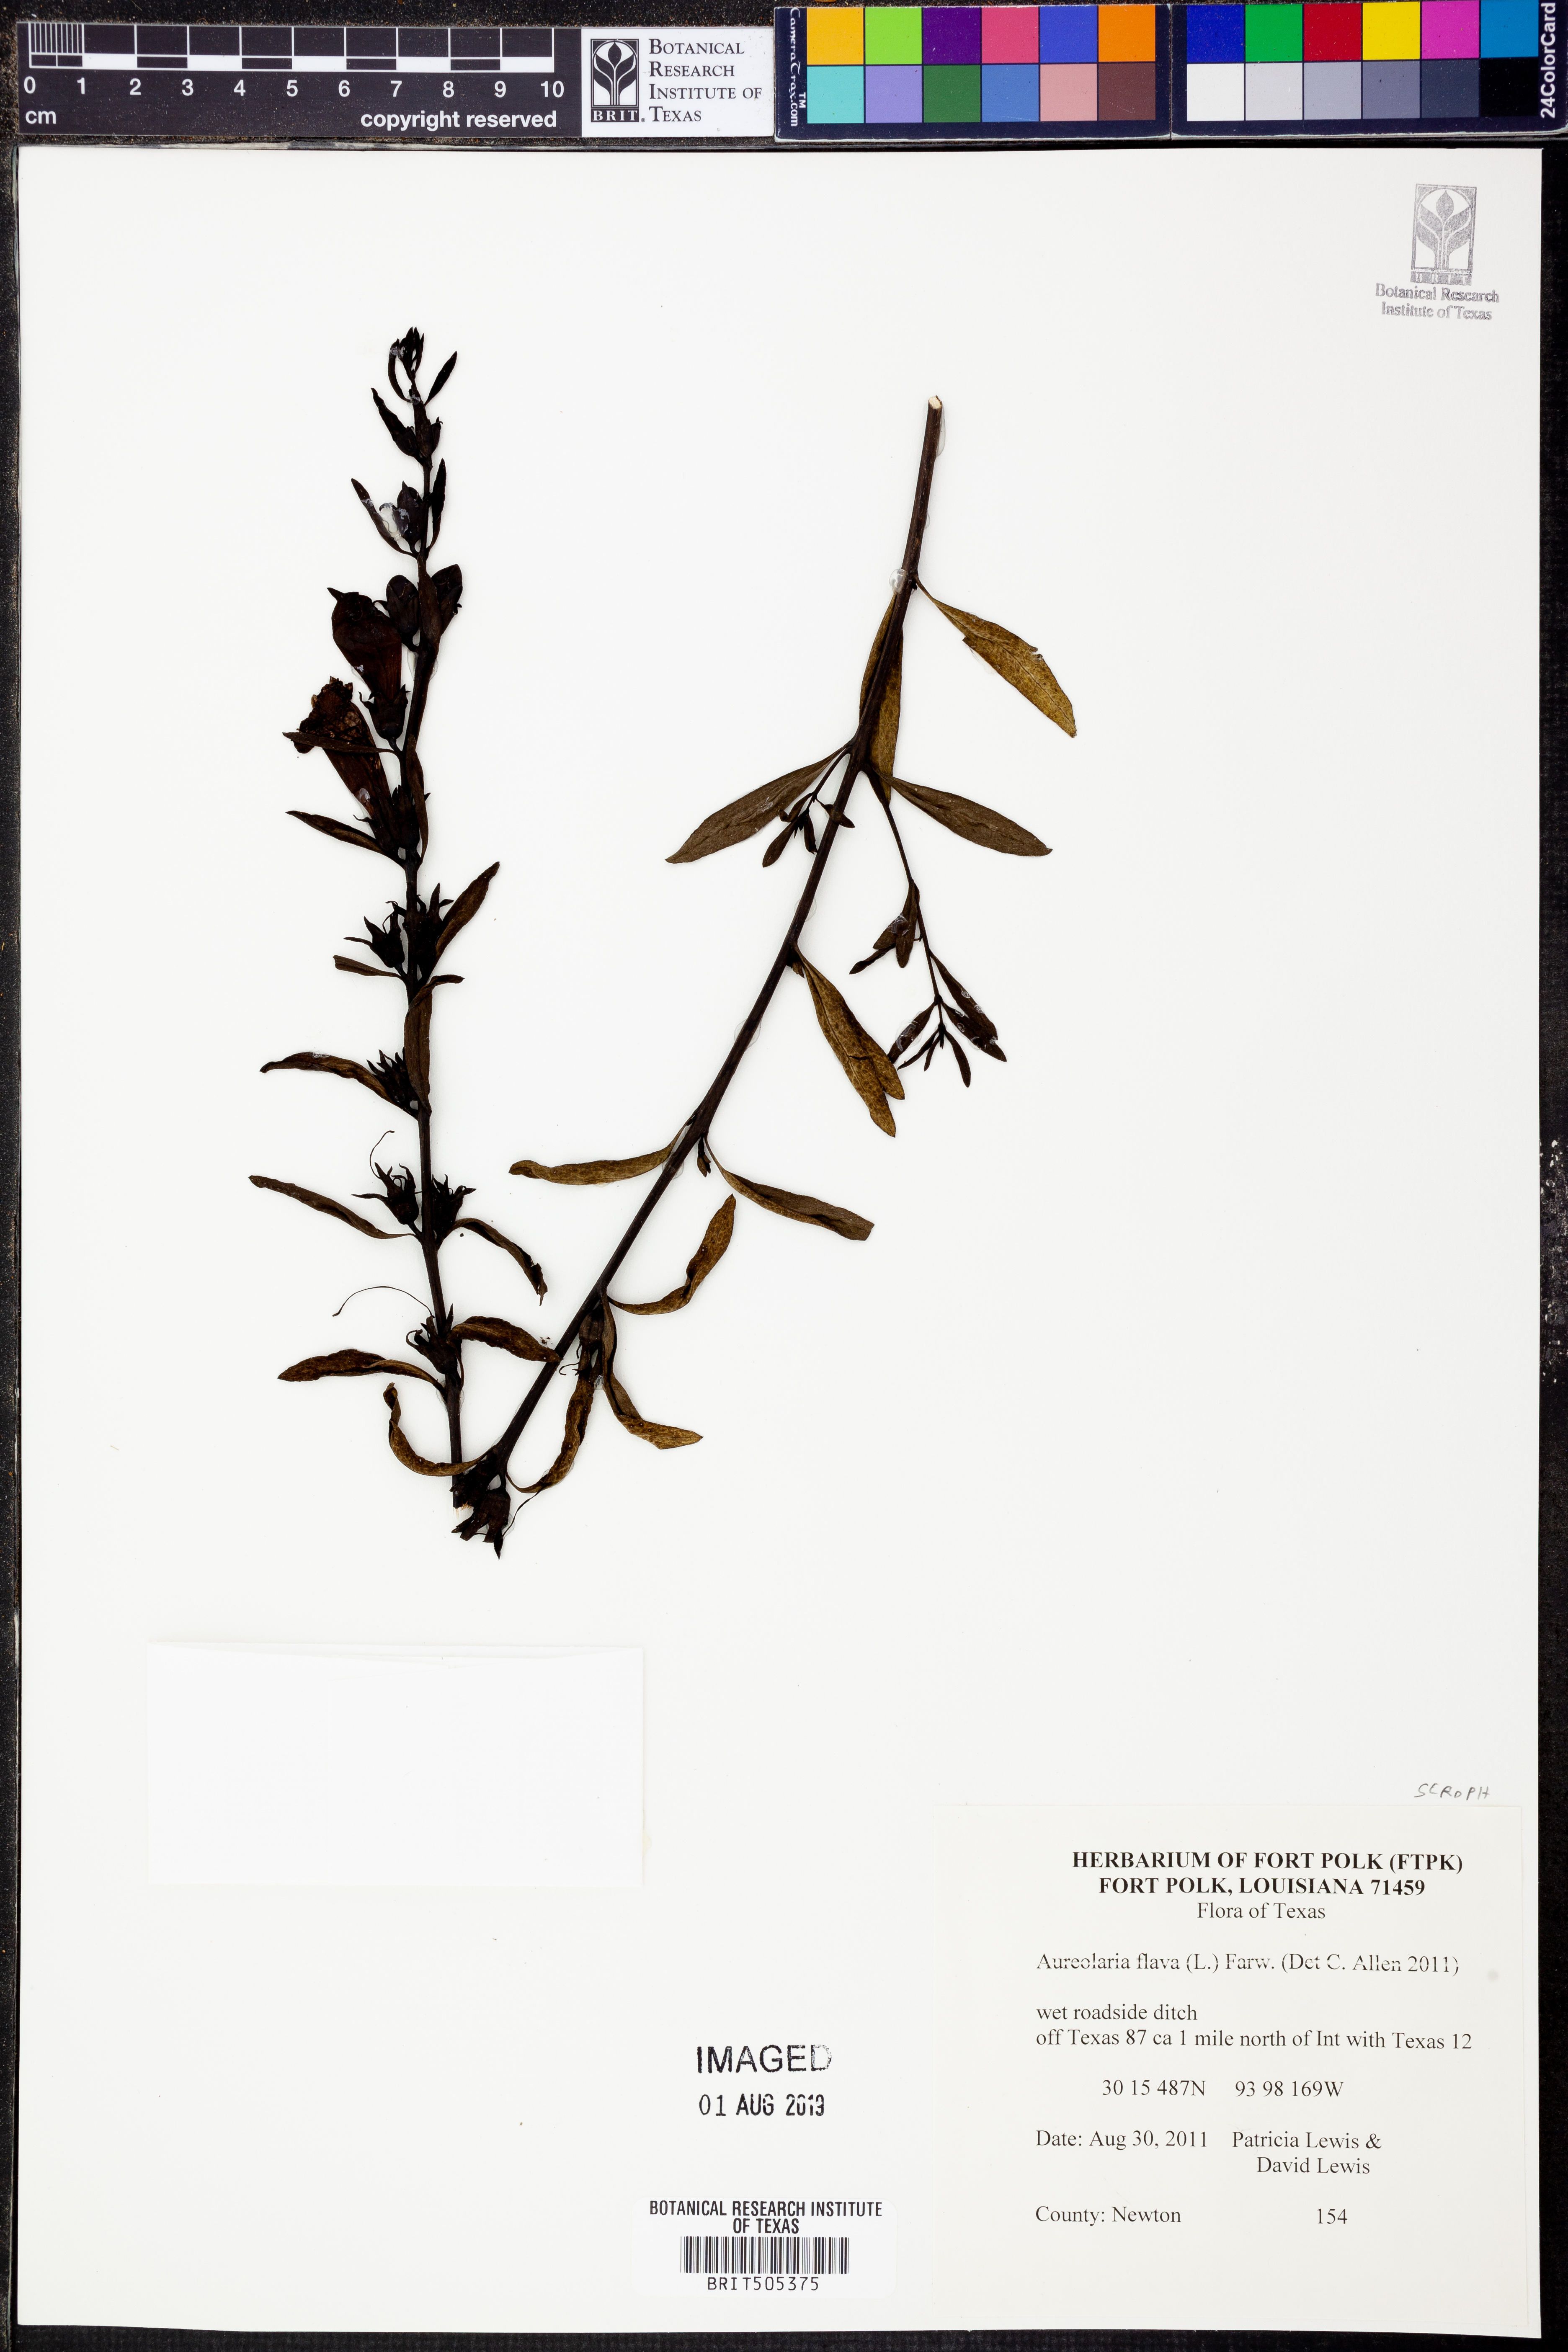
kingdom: Plantae
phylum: Tracheophyta
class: Magnoliopsida
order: Lamiales
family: Orobanchaceae
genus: Aureolaria
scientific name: Aureolaria flava
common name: Smooth false foxglove
